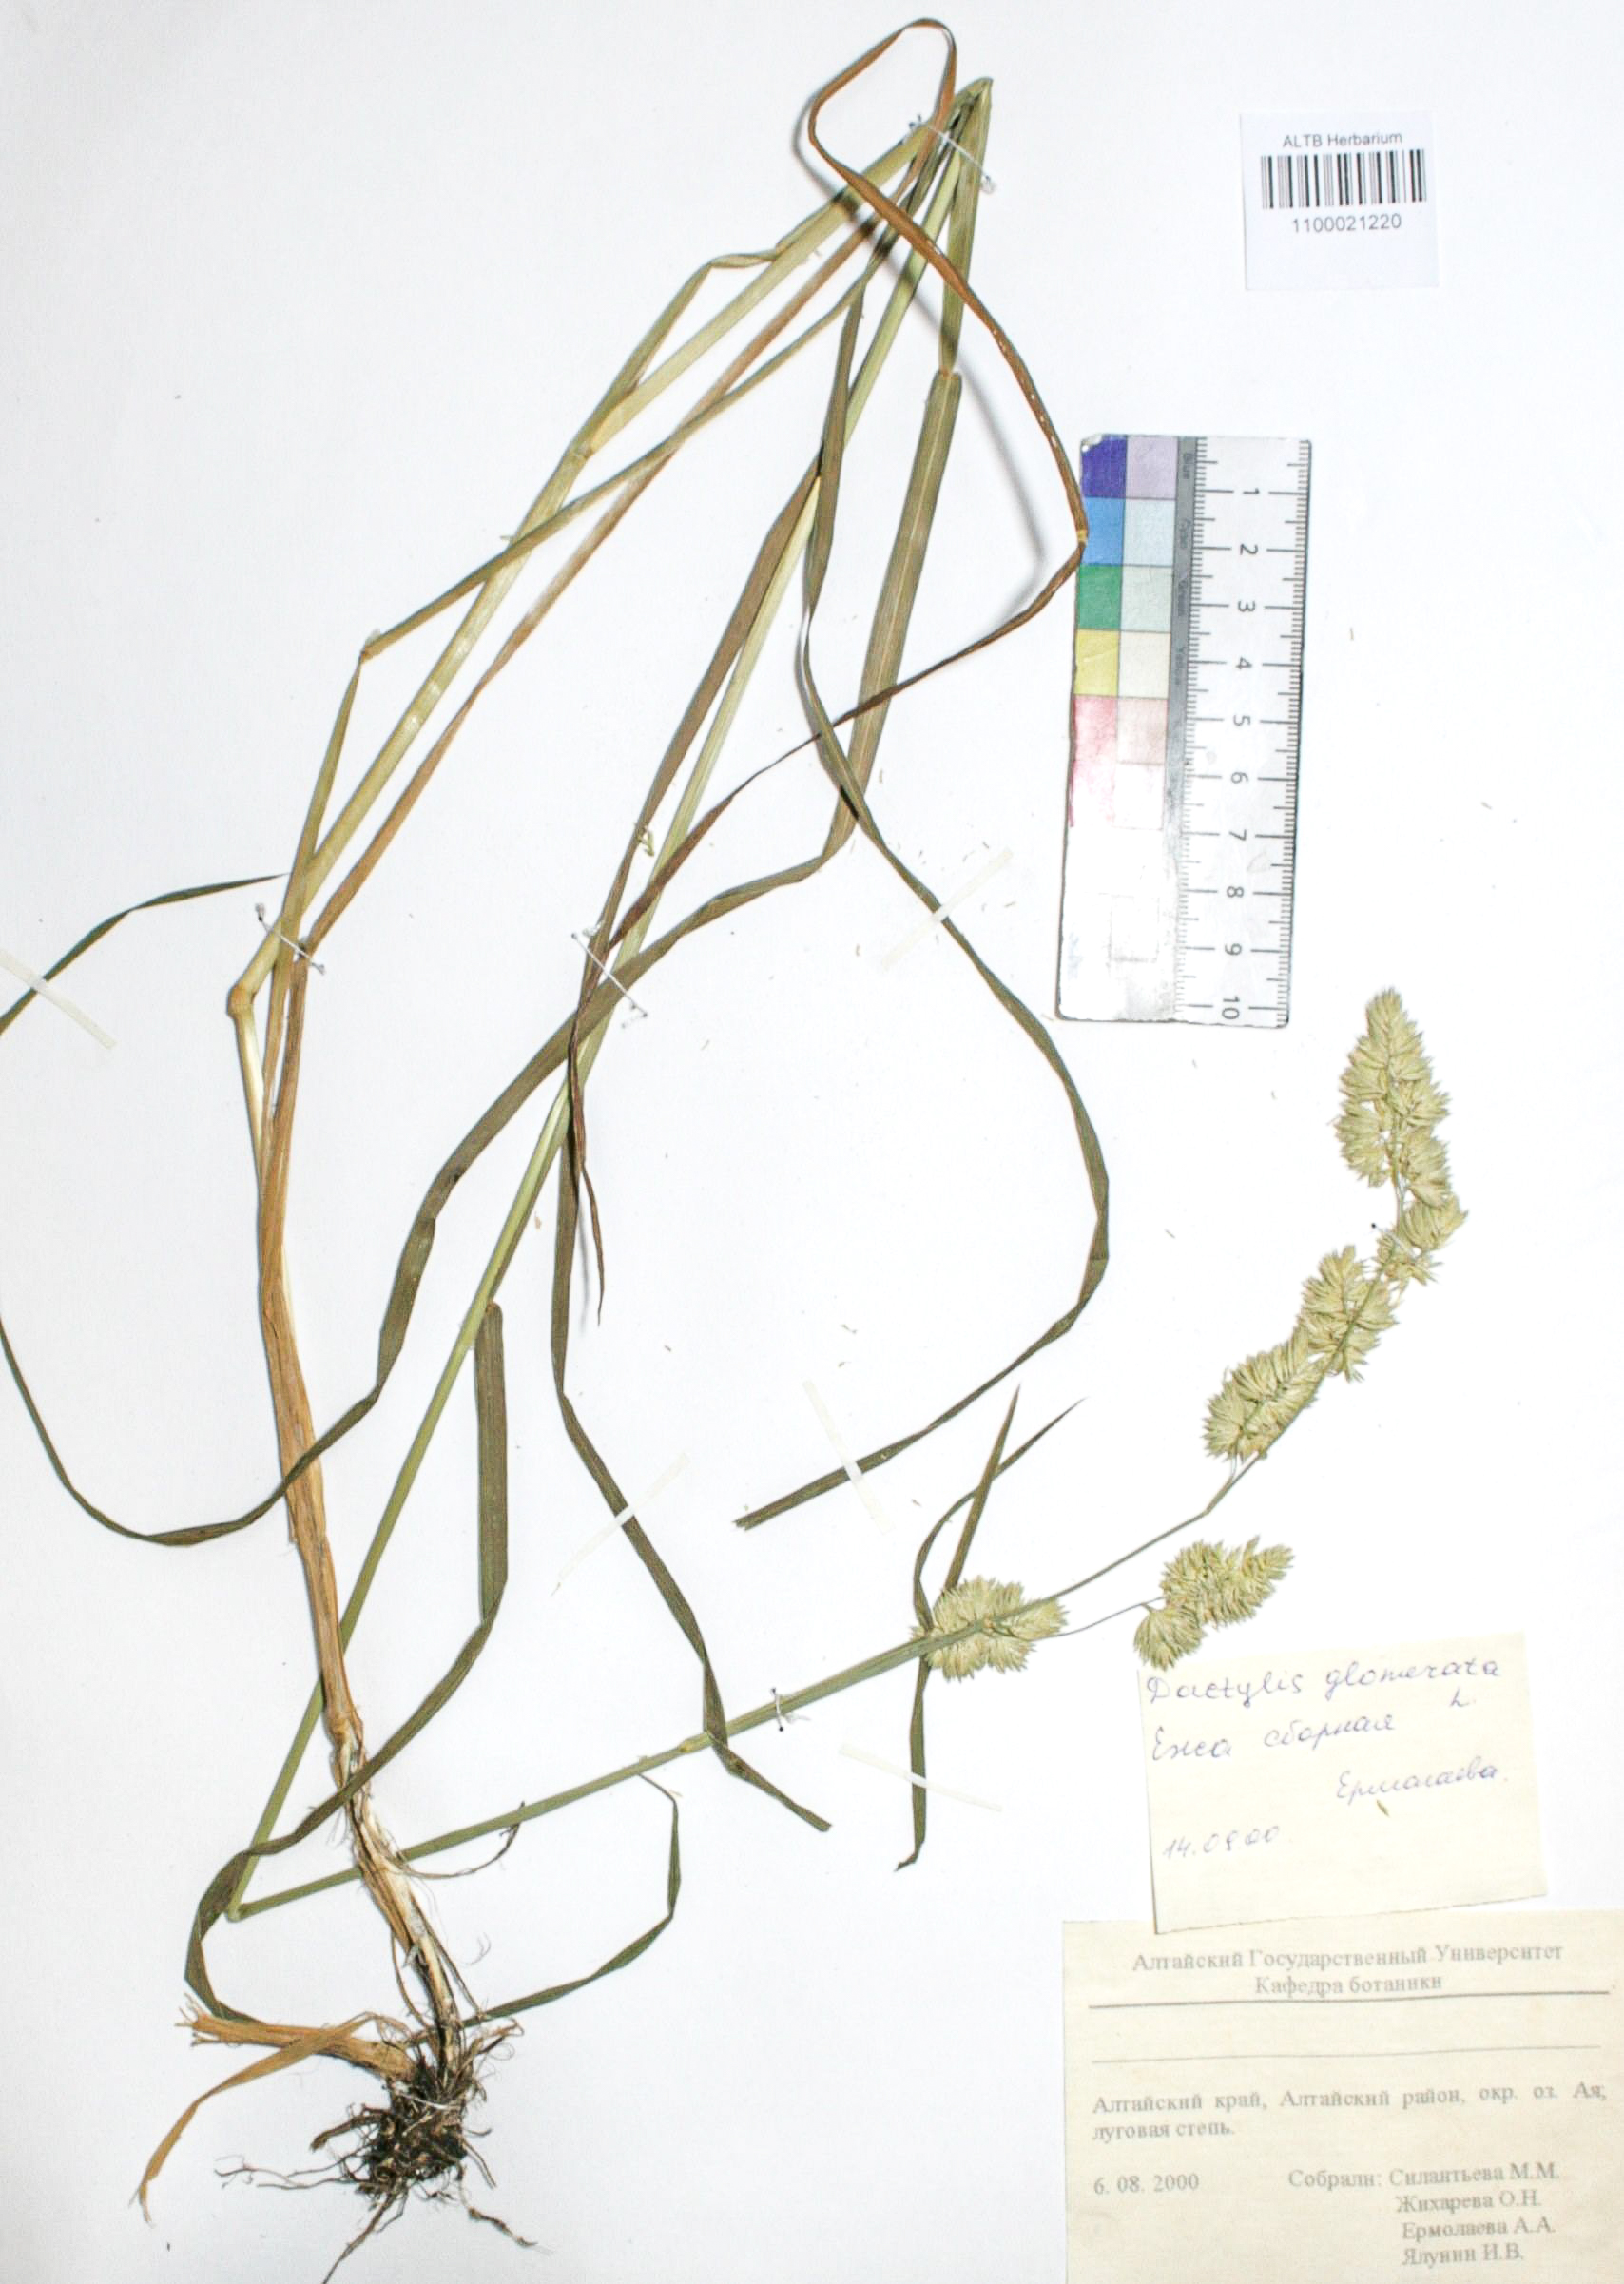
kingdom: Plantae
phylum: Tracheophyta
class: Liliopsida
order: Poales
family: Poaceae
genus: Dactylis
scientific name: Dactylis glomerata
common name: Orchardgrass
